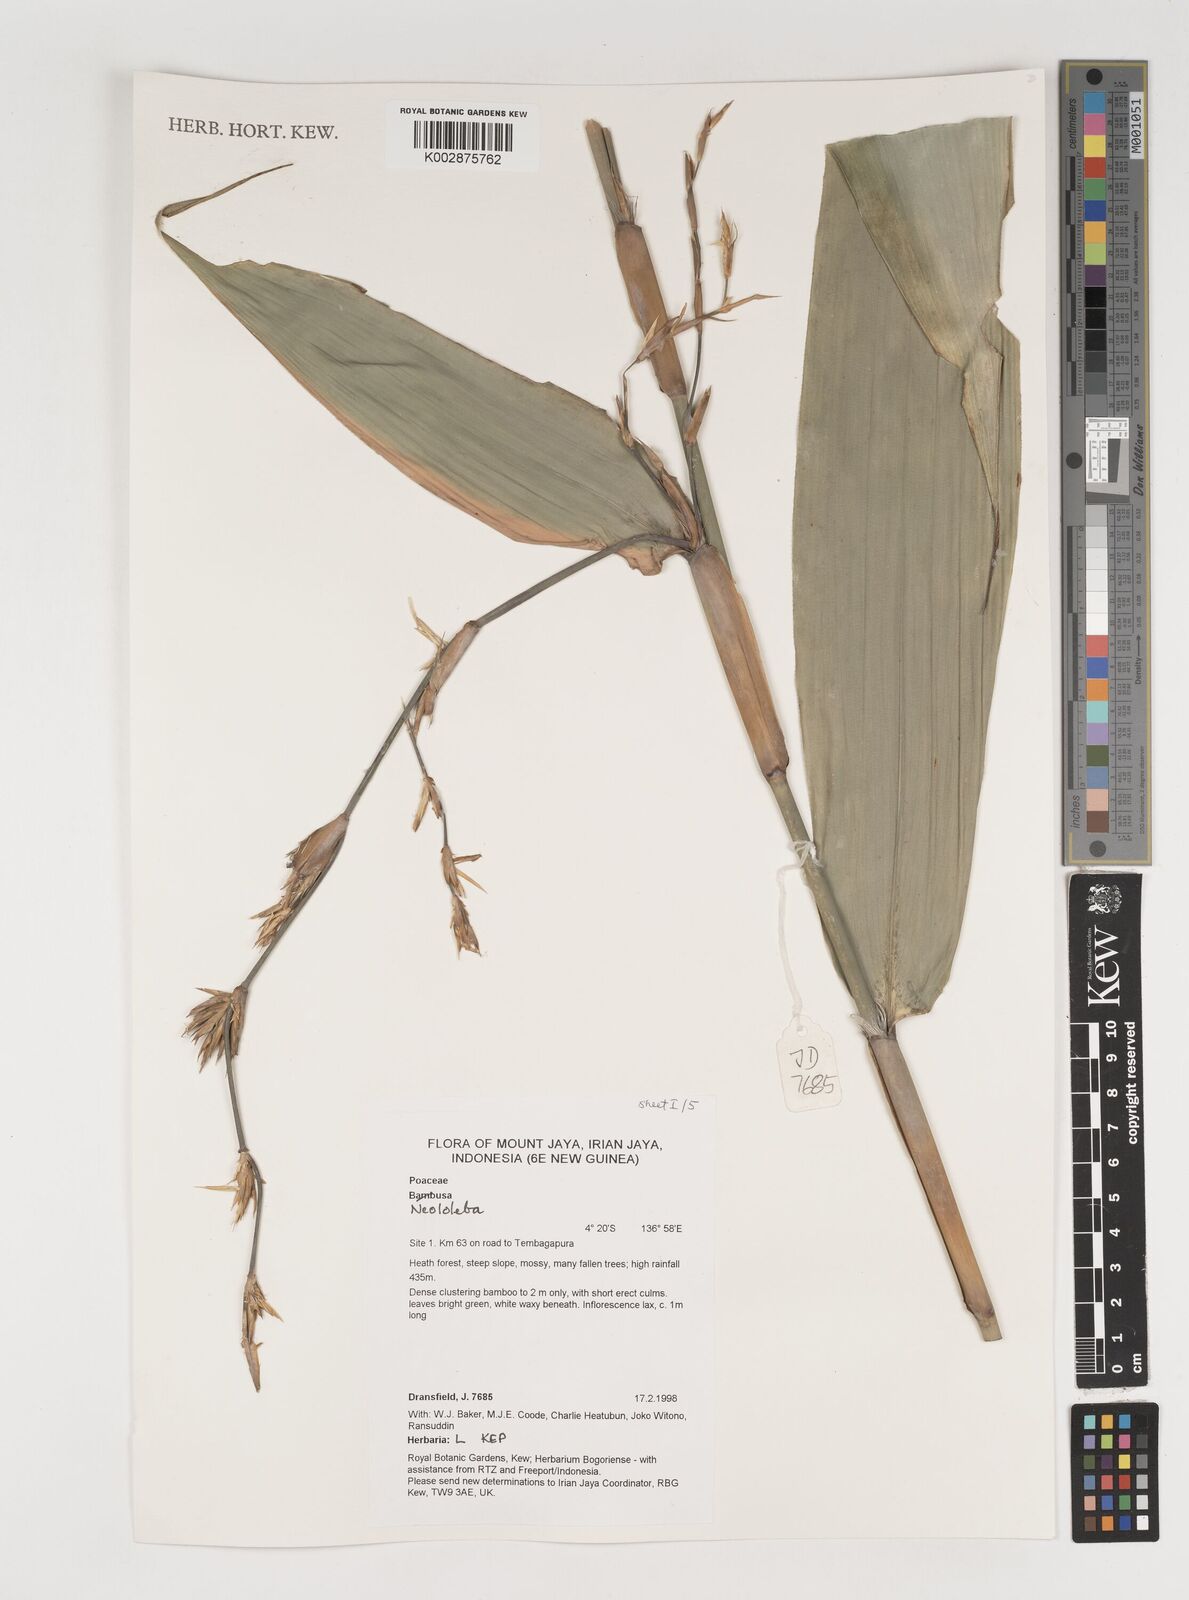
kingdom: Plantae
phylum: Tracheophyta
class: Liliopsida
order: Poales
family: Poaceae
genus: Neololeba
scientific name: Neololeba
